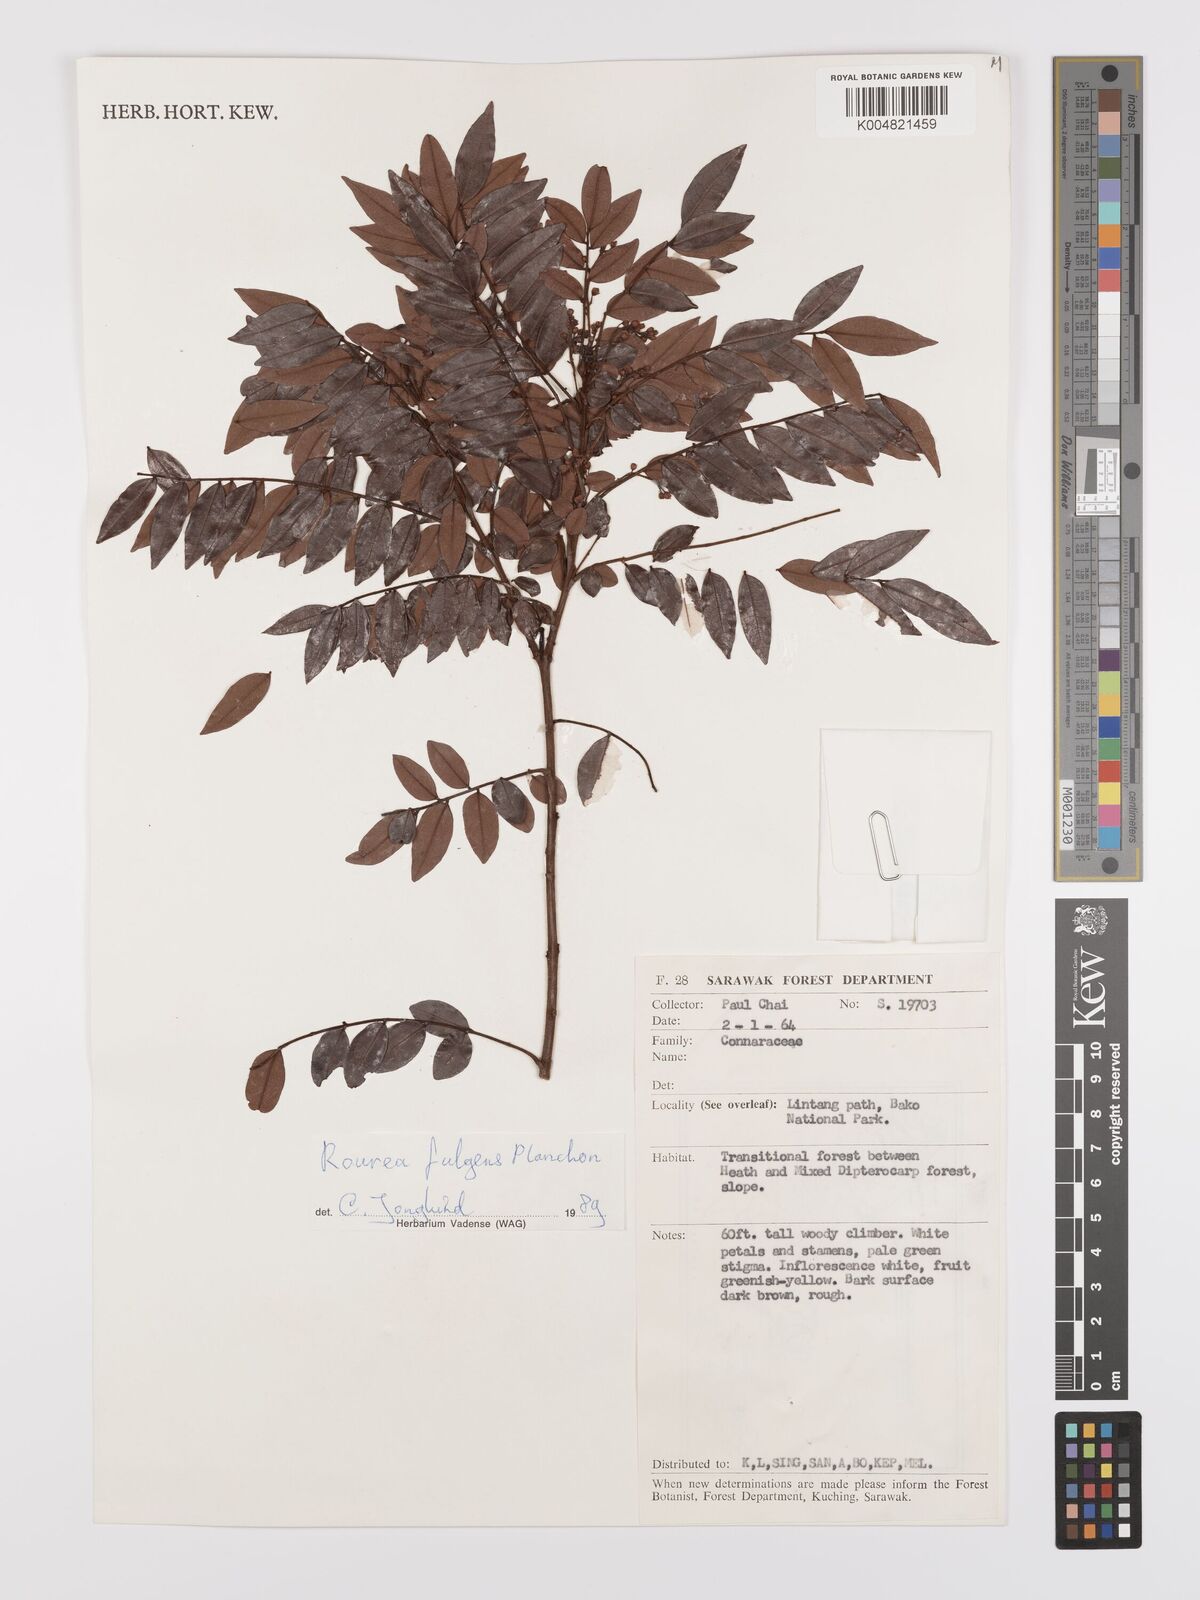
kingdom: Plantae
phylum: Tracheophyta
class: Magnoliopsida
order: Oxalidales
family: Connaraceae
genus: Rourea
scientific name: Rourea fulgens
